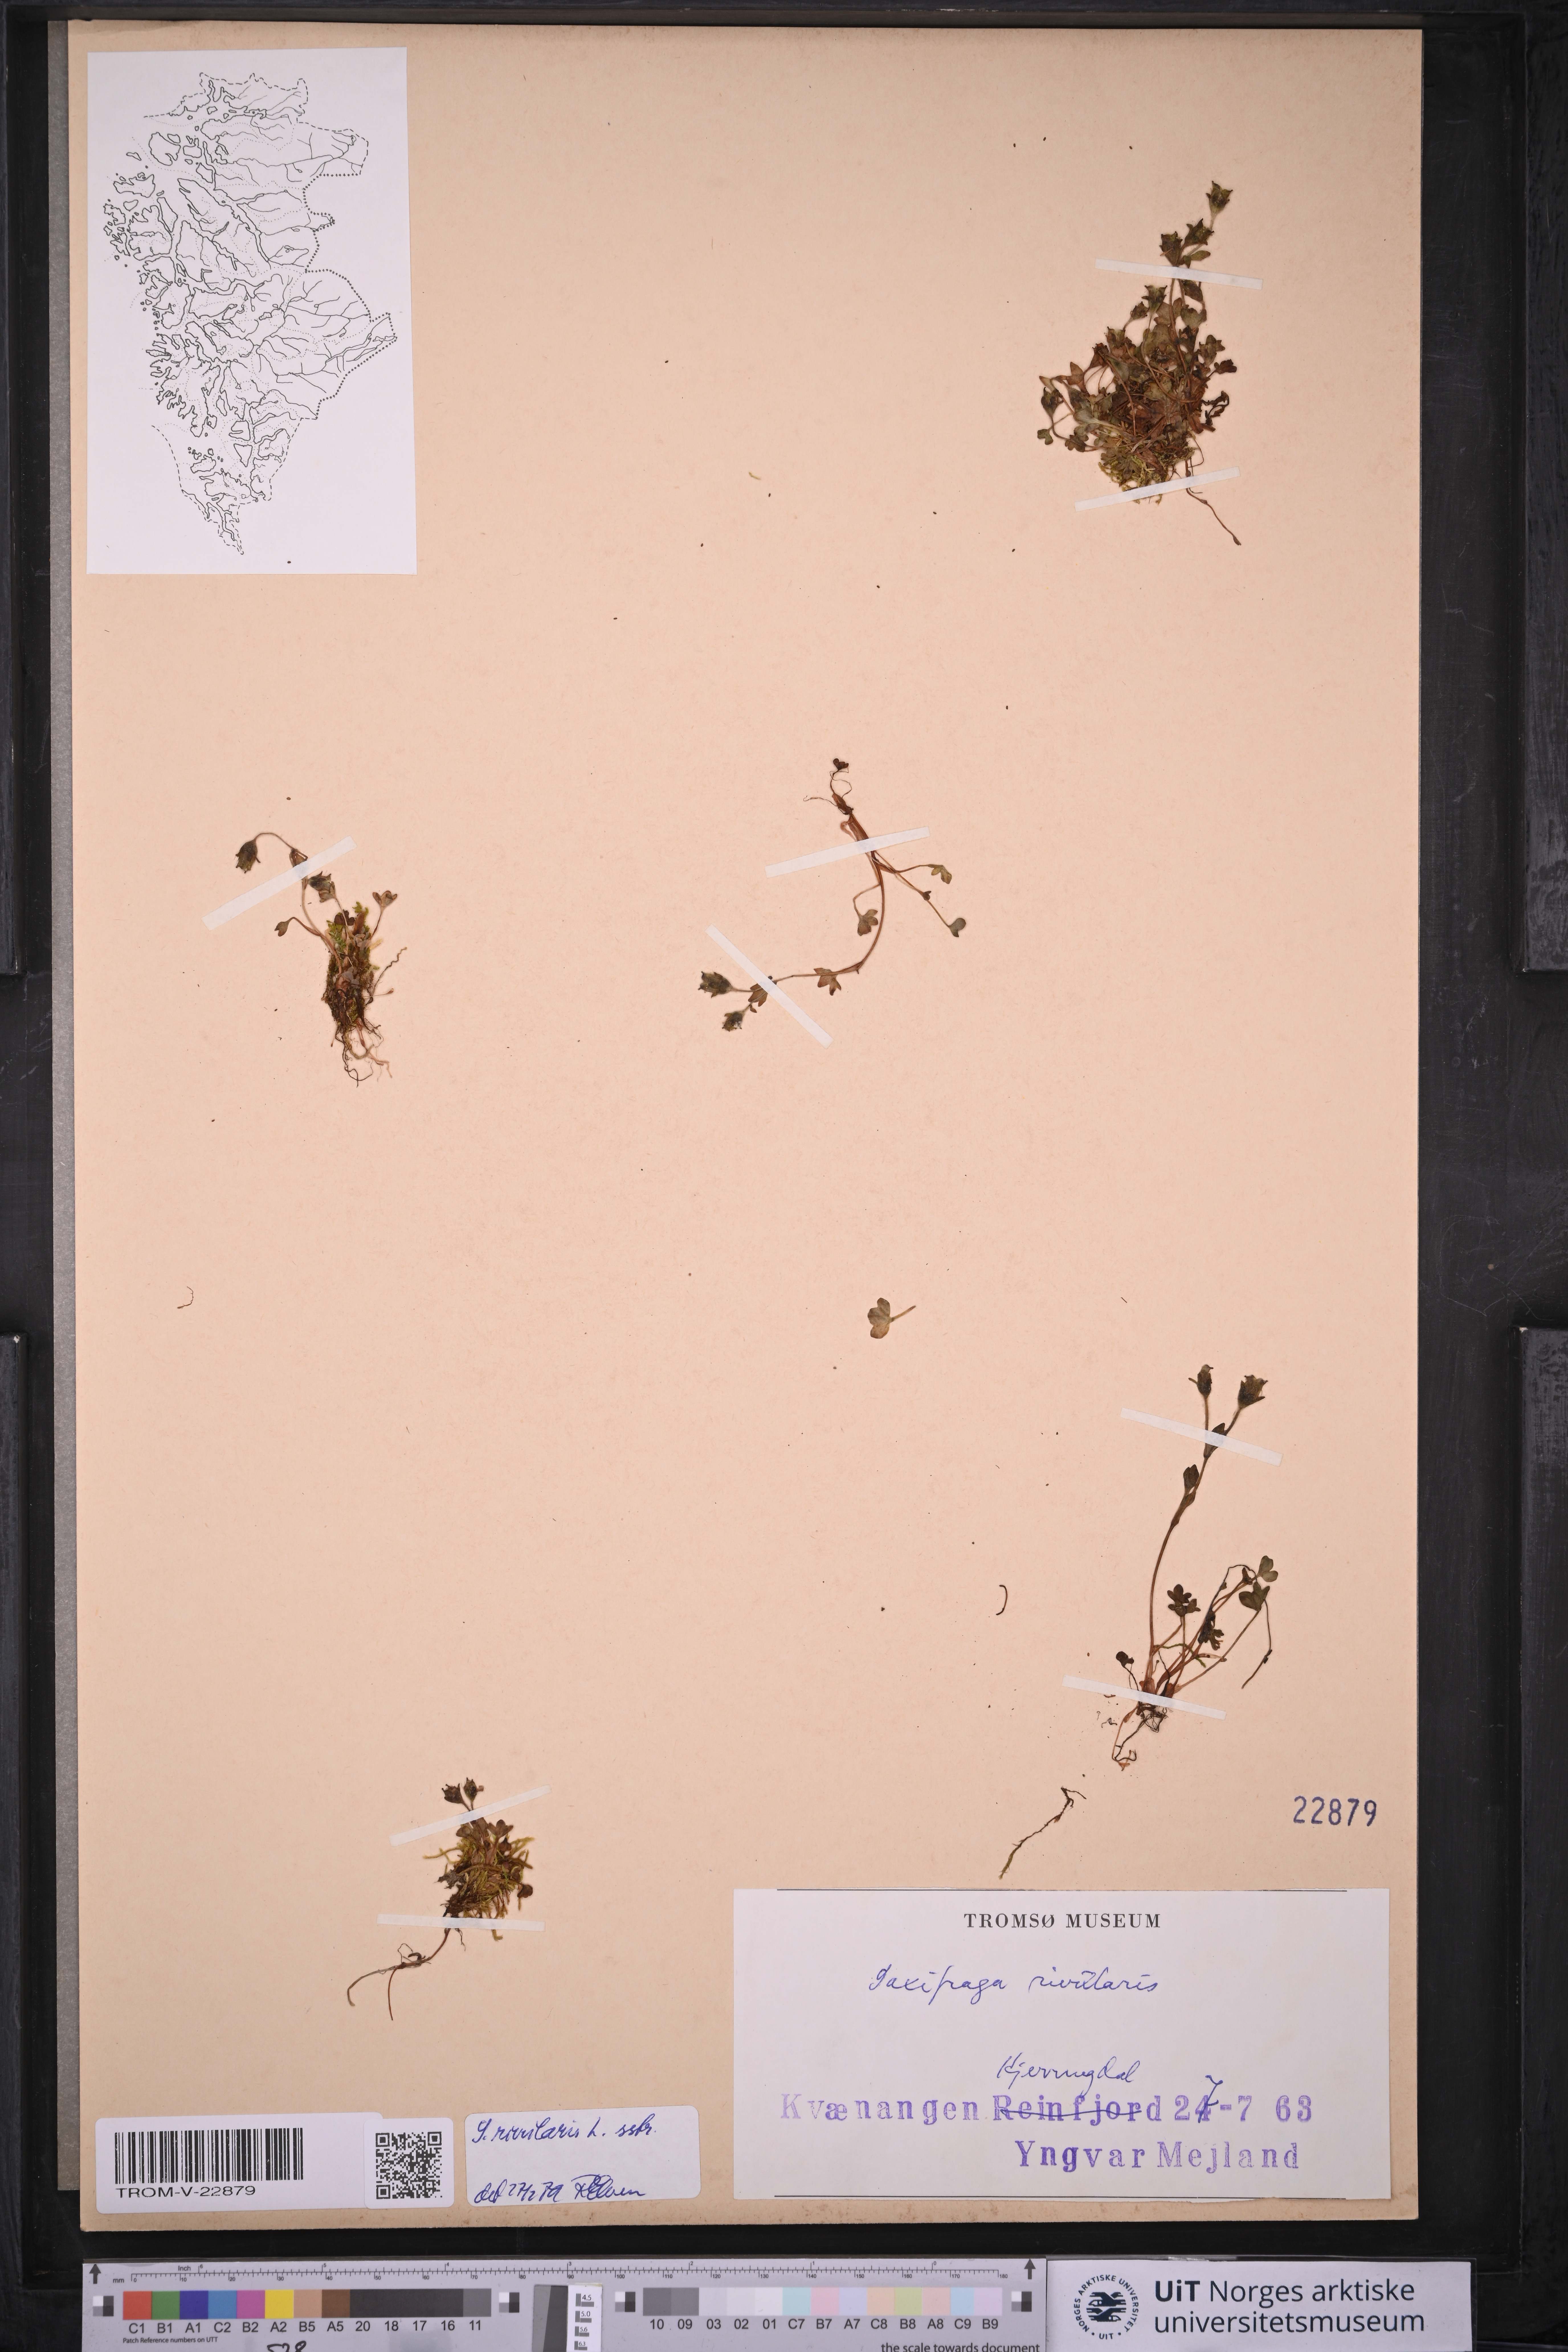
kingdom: Plantae
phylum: Tracheophyta
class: Magnoliopsida
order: Saxifragales
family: Saxifragaceae
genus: Saxifraga
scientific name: Saxifraga rivularis
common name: Highland saxifrage
